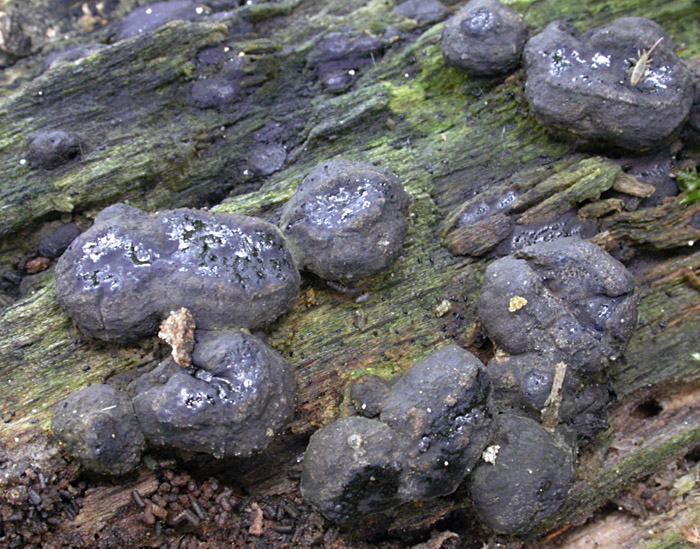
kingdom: Fungi
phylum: Ascomycota
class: Sordariomycetes
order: Boliniales
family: Boliniaceae
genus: Camaropella
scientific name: Camaropella lutea
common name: gulsplint-kulsnegl
